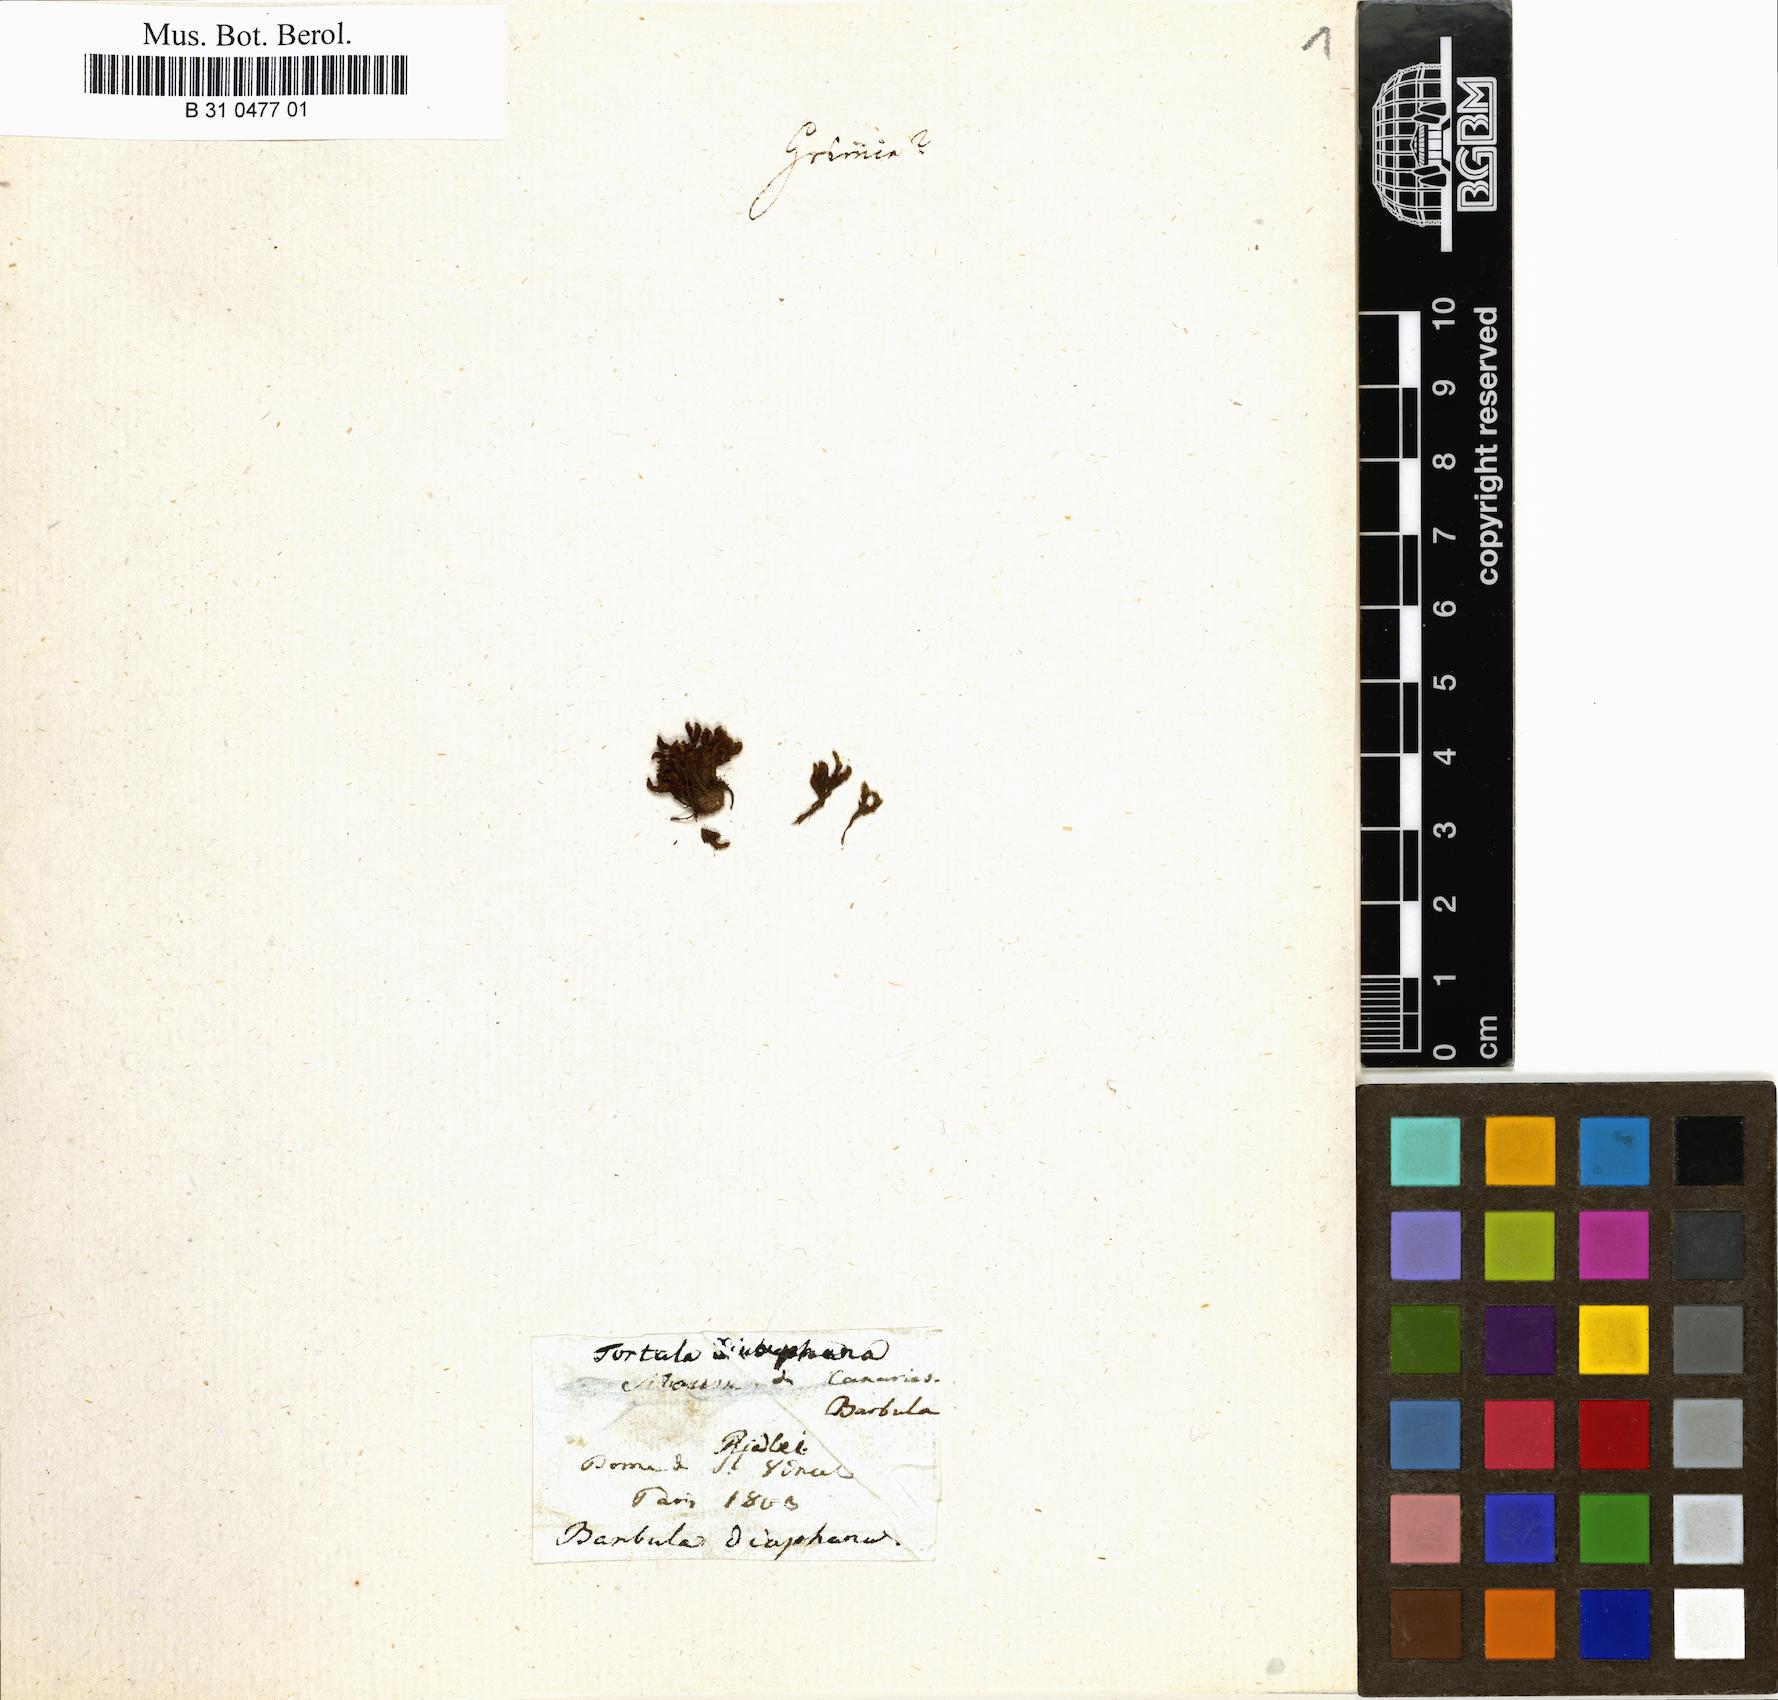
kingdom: Plantae
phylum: Bryophyta
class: Bryopsida
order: Pottiales
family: Pottiaceae
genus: Pseudocrossidium
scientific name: Pseudocrossidium crinitum
